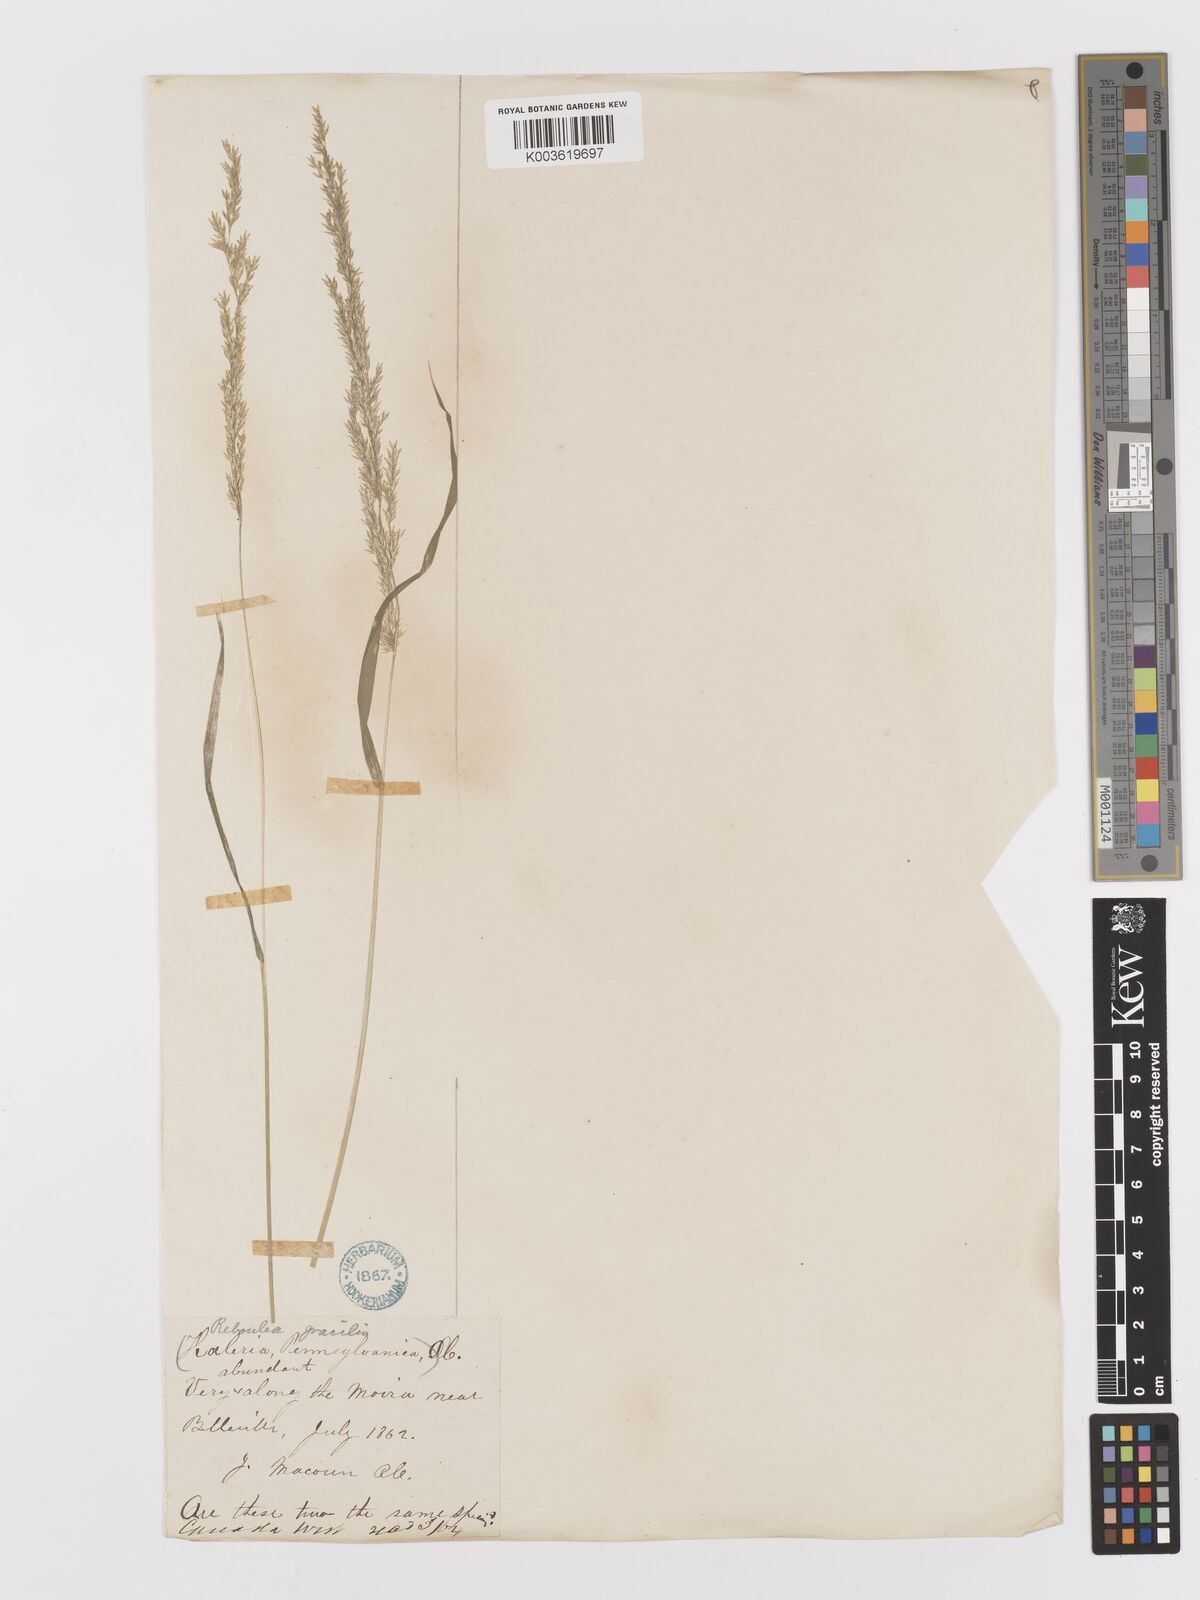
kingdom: Plantae
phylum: Tracheophyta
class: Liliopsida
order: Poales
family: Poaceae
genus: Sphenopholis
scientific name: Sphenopholis obtusata
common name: Prairie grass
